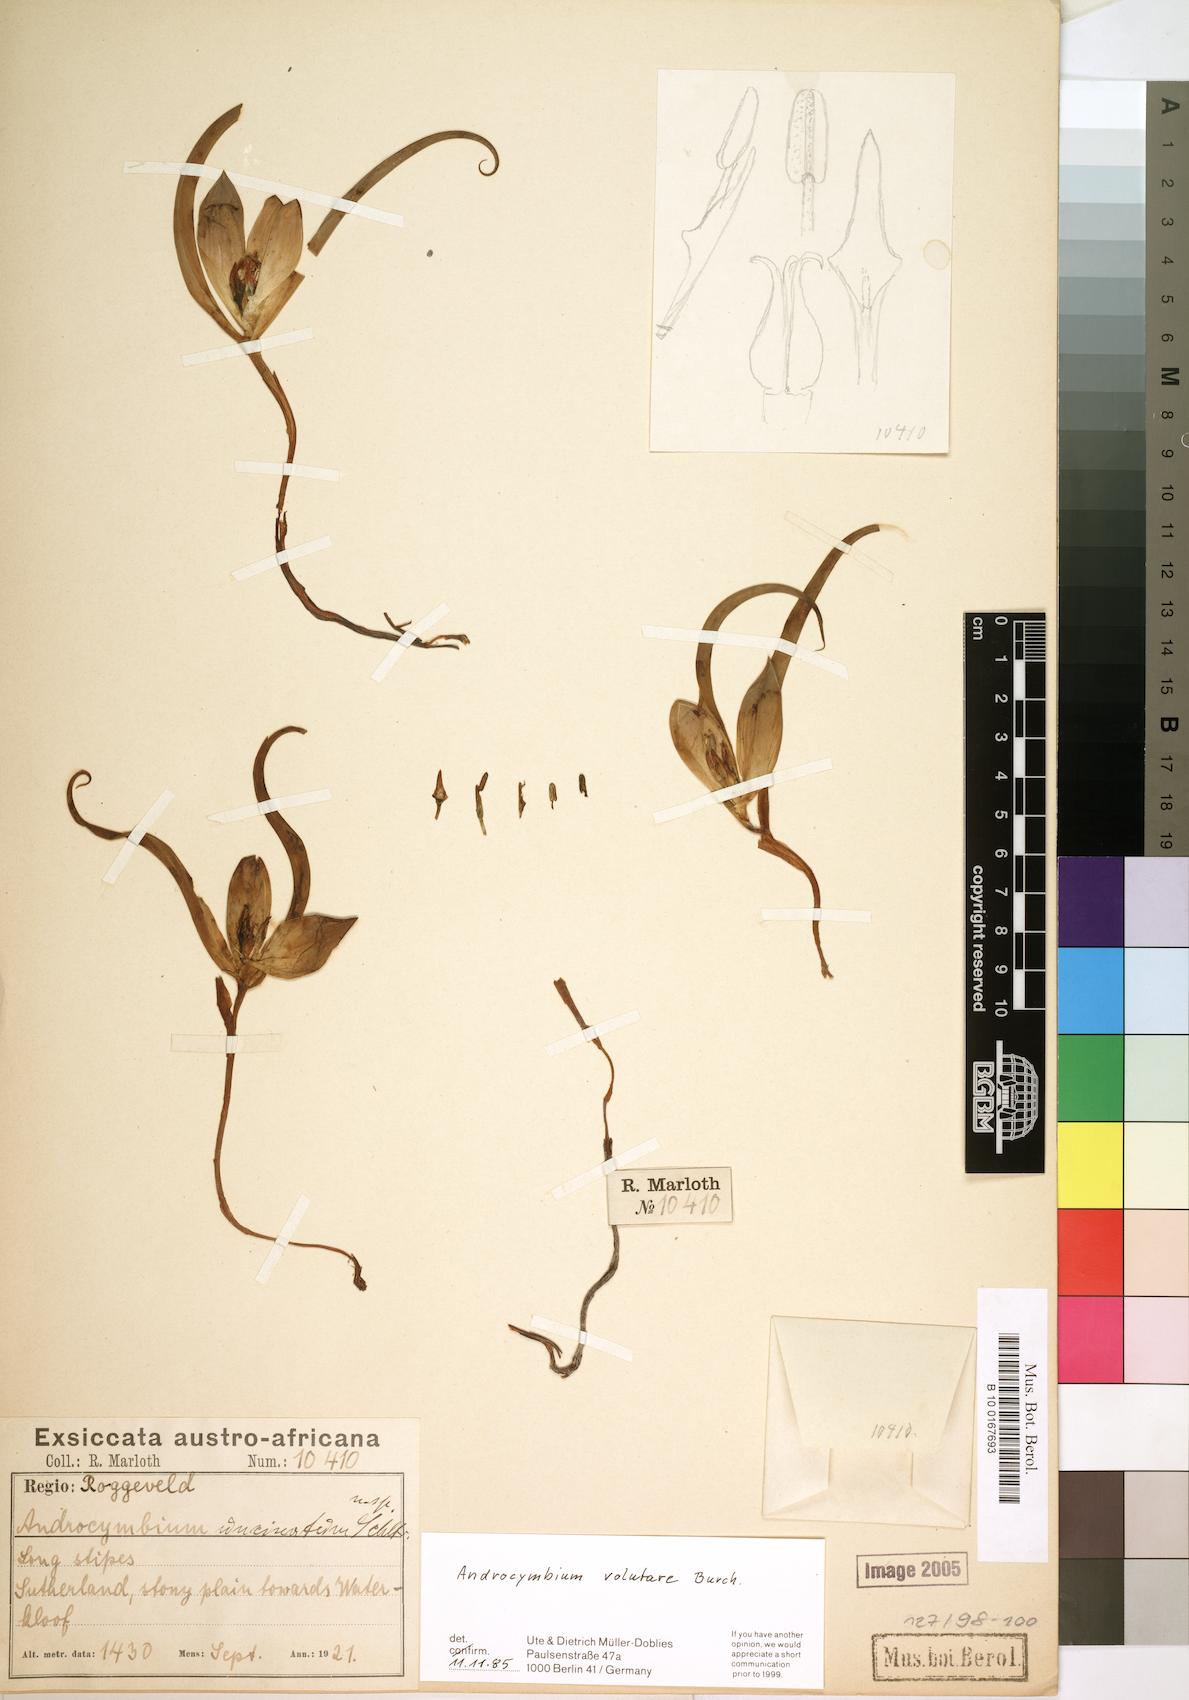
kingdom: Plantae
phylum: Tracheophyta
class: Liliopsida
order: Liliales
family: Colchicaceae
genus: Colchicum
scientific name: Colchicum volutare
